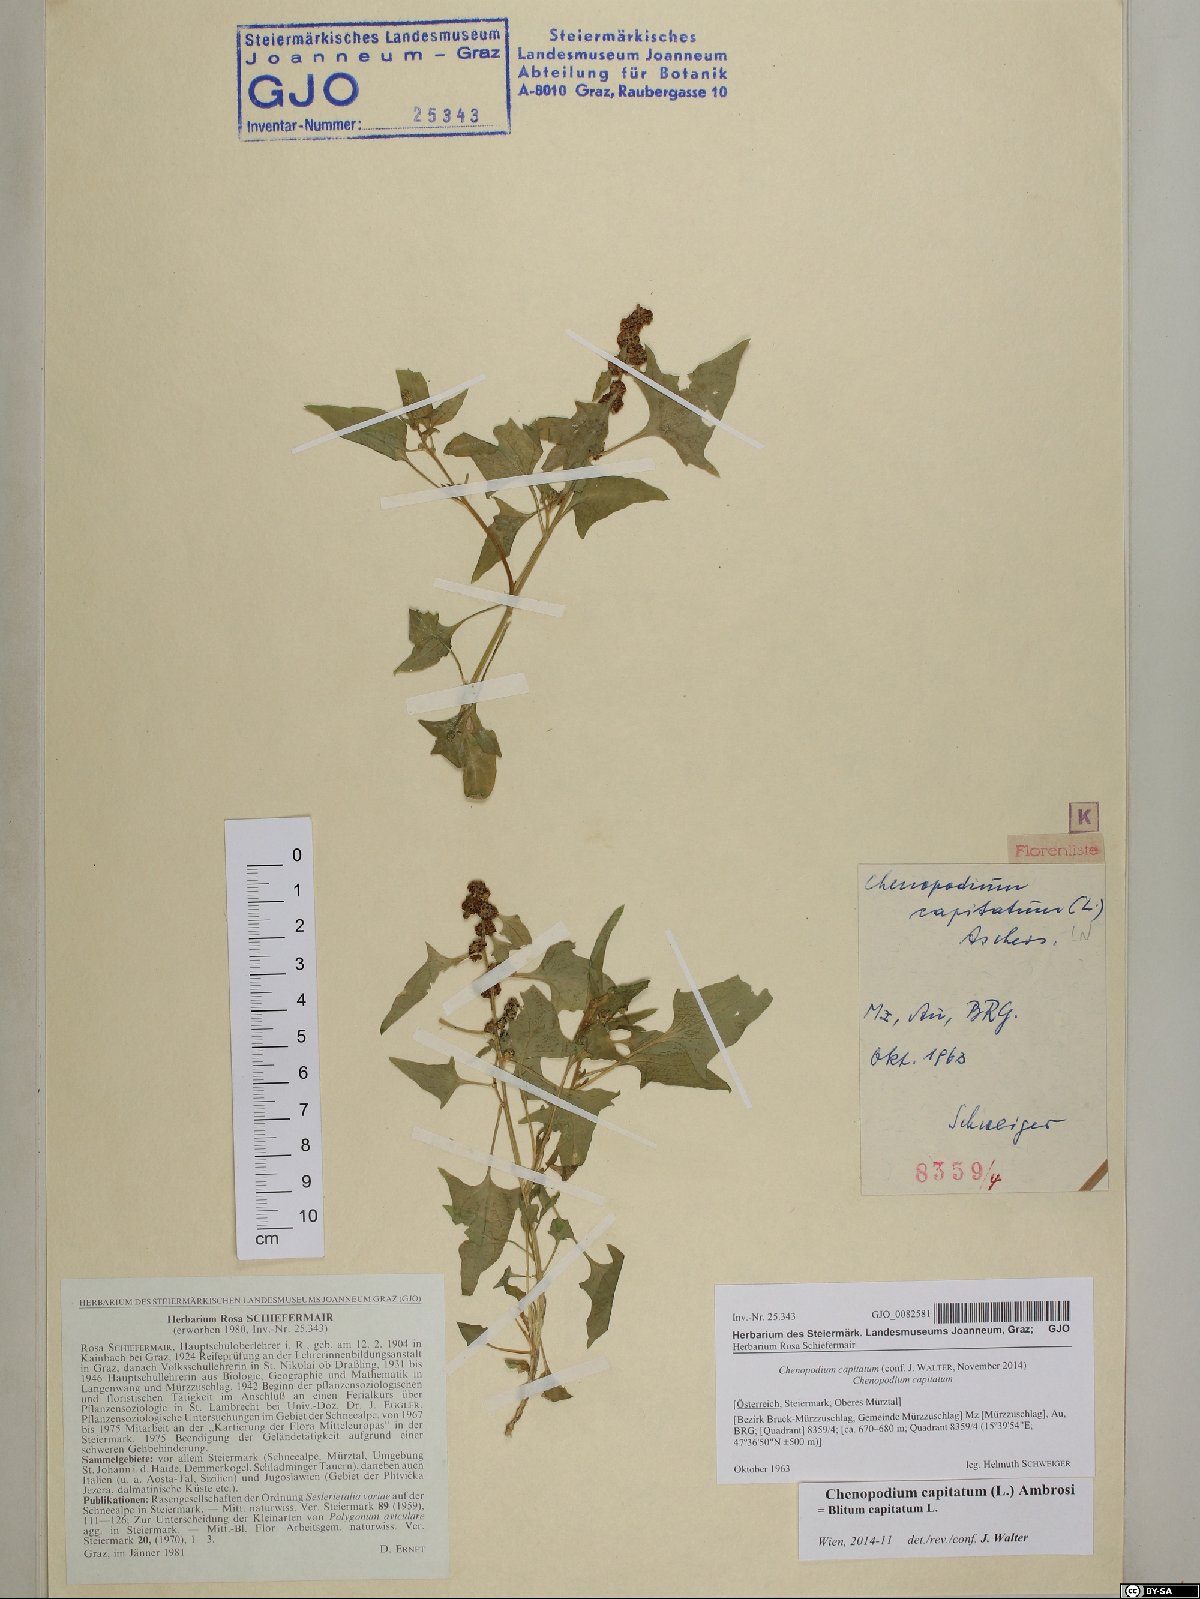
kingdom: Plantae
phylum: Tracheophyta
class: Magnoliopsida
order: Caryophyllales
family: Amaranthaceae
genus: Blitum
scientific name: Blitum capitatum
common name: Strawberry-blight
